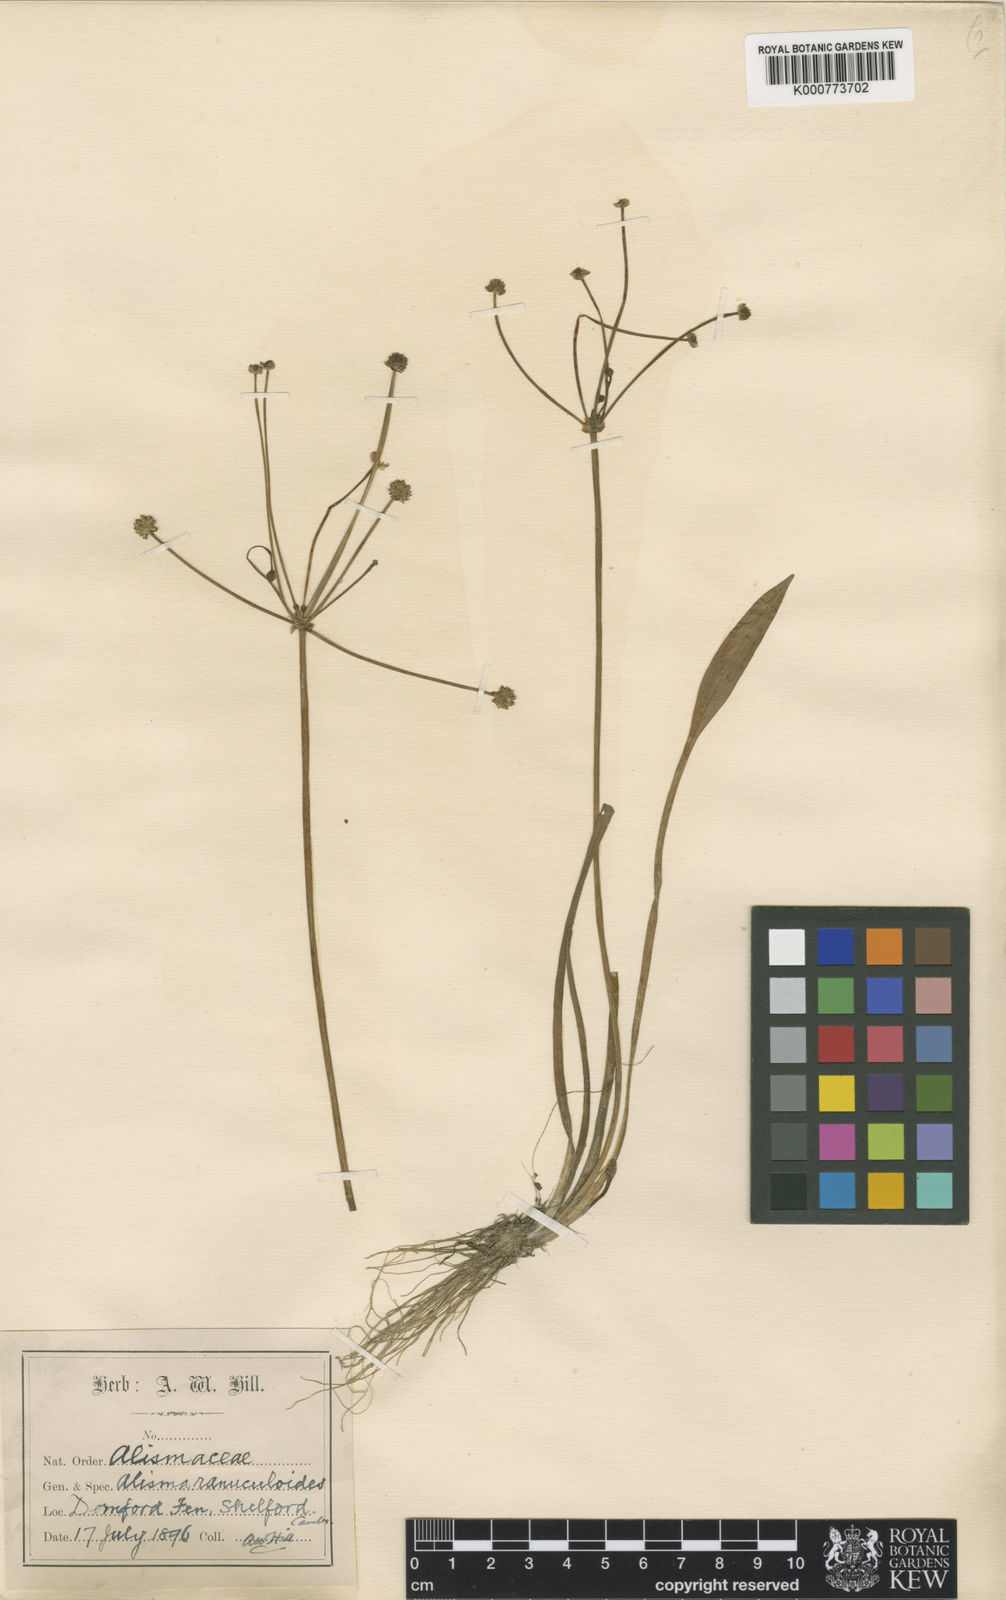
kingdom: Plantae
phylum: Tracheophyta
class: Liliopsida
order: Alismatales
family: Alismataceae
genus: Baldellia
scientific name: Baldellia ranunculoides
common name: Lesser water-plantain
